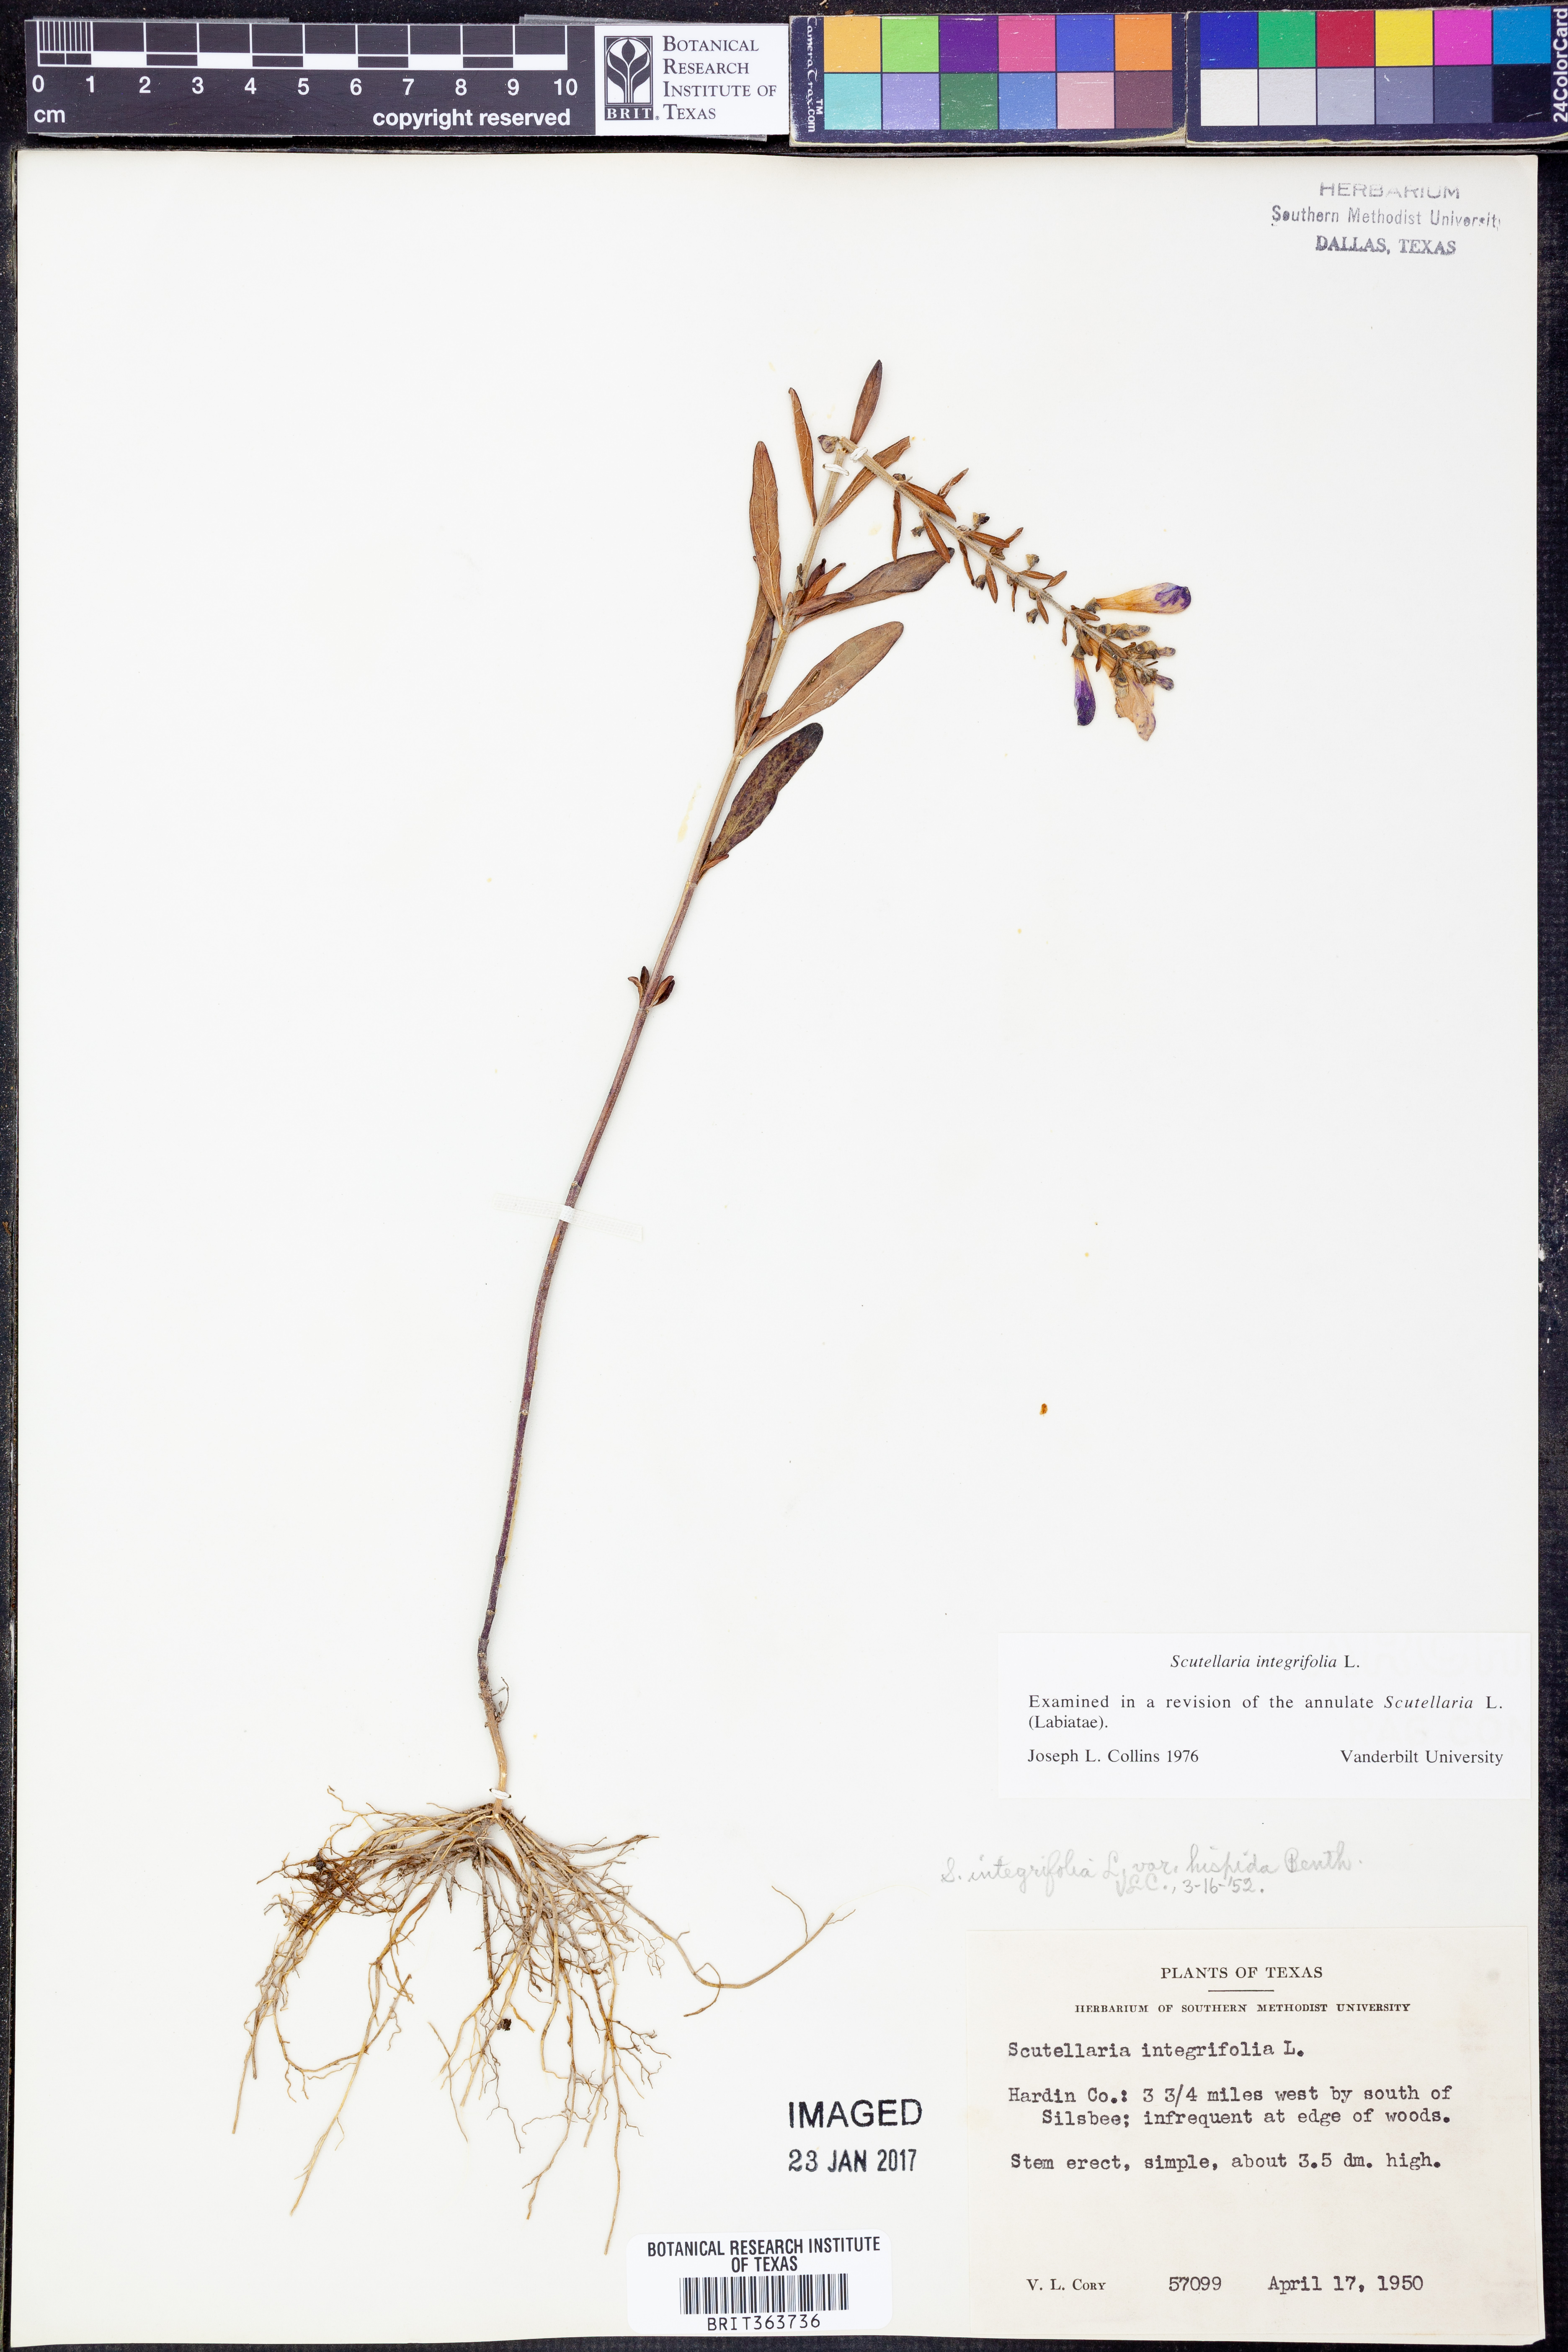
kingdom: Plantae
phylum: Tracheophyta
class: Magnoliopsida
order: Lamiales
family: Lamiaceae
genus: Scutellaria
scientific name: Scutellaria integrifolia
